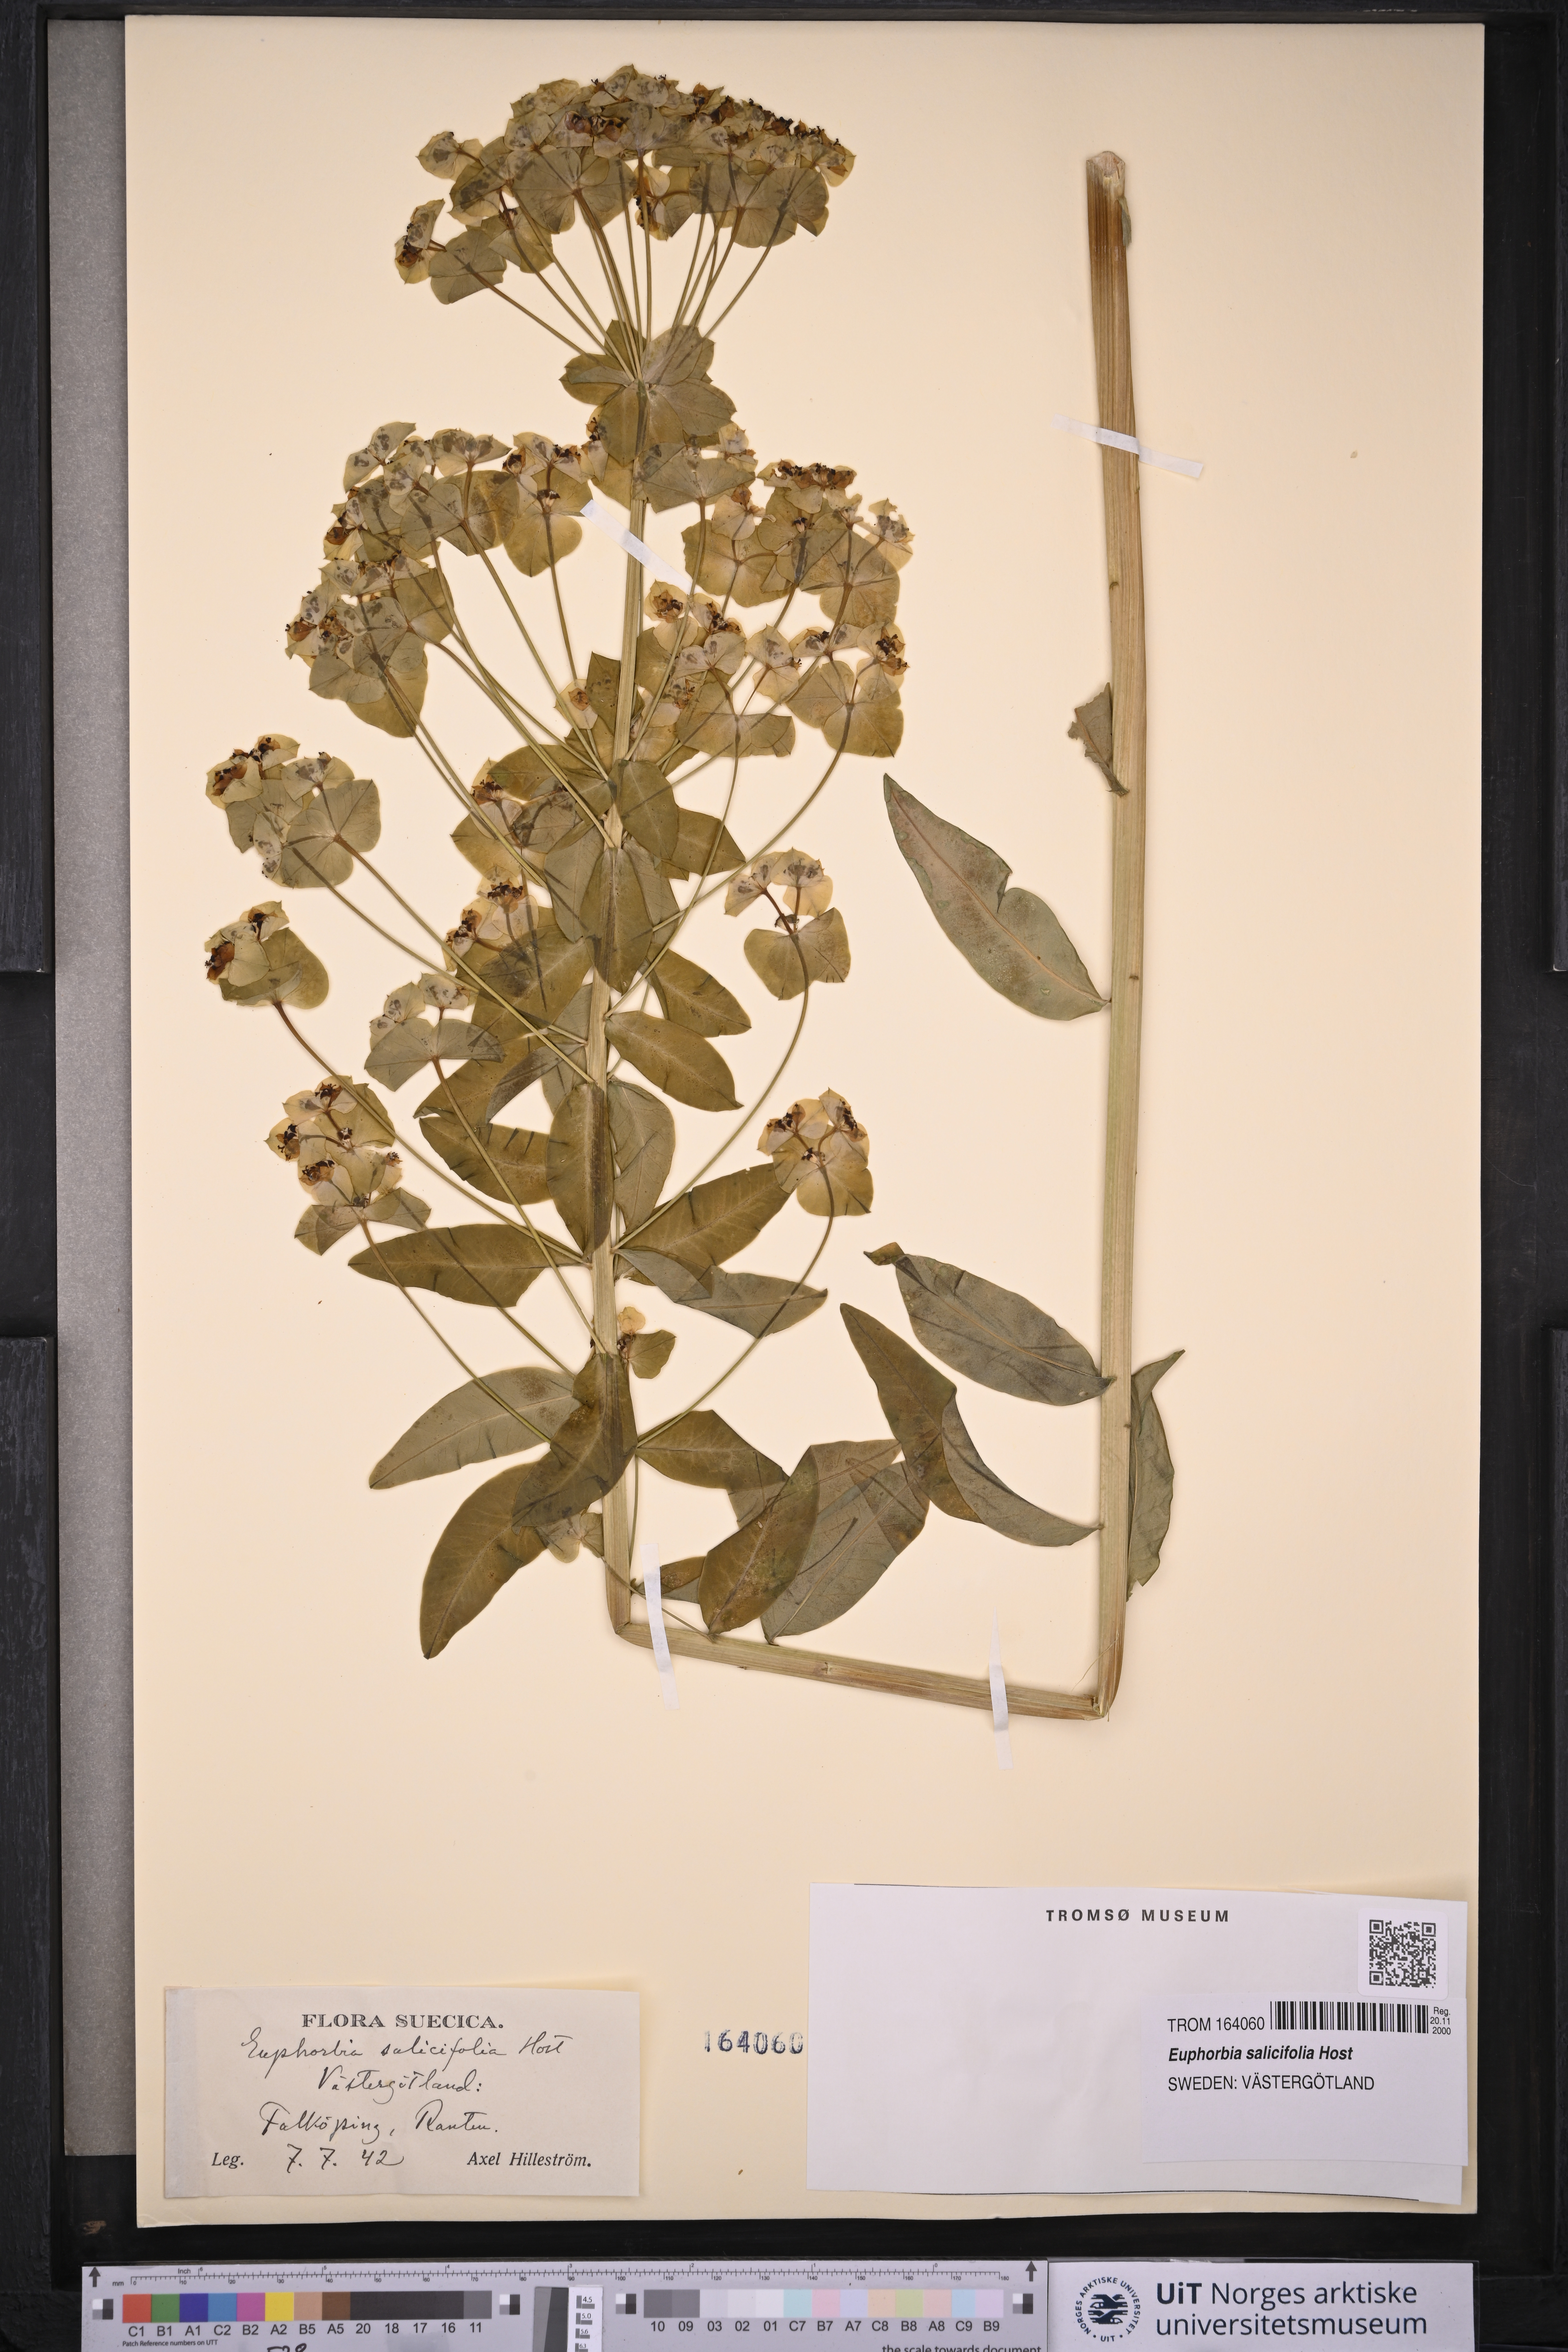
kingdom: Plantae
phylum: Tracheophyta
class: Magnoliopsida
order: Malpighiales
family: Euphorbiaceae
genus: Euphorbia
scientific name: Euphorbia salicifolia
